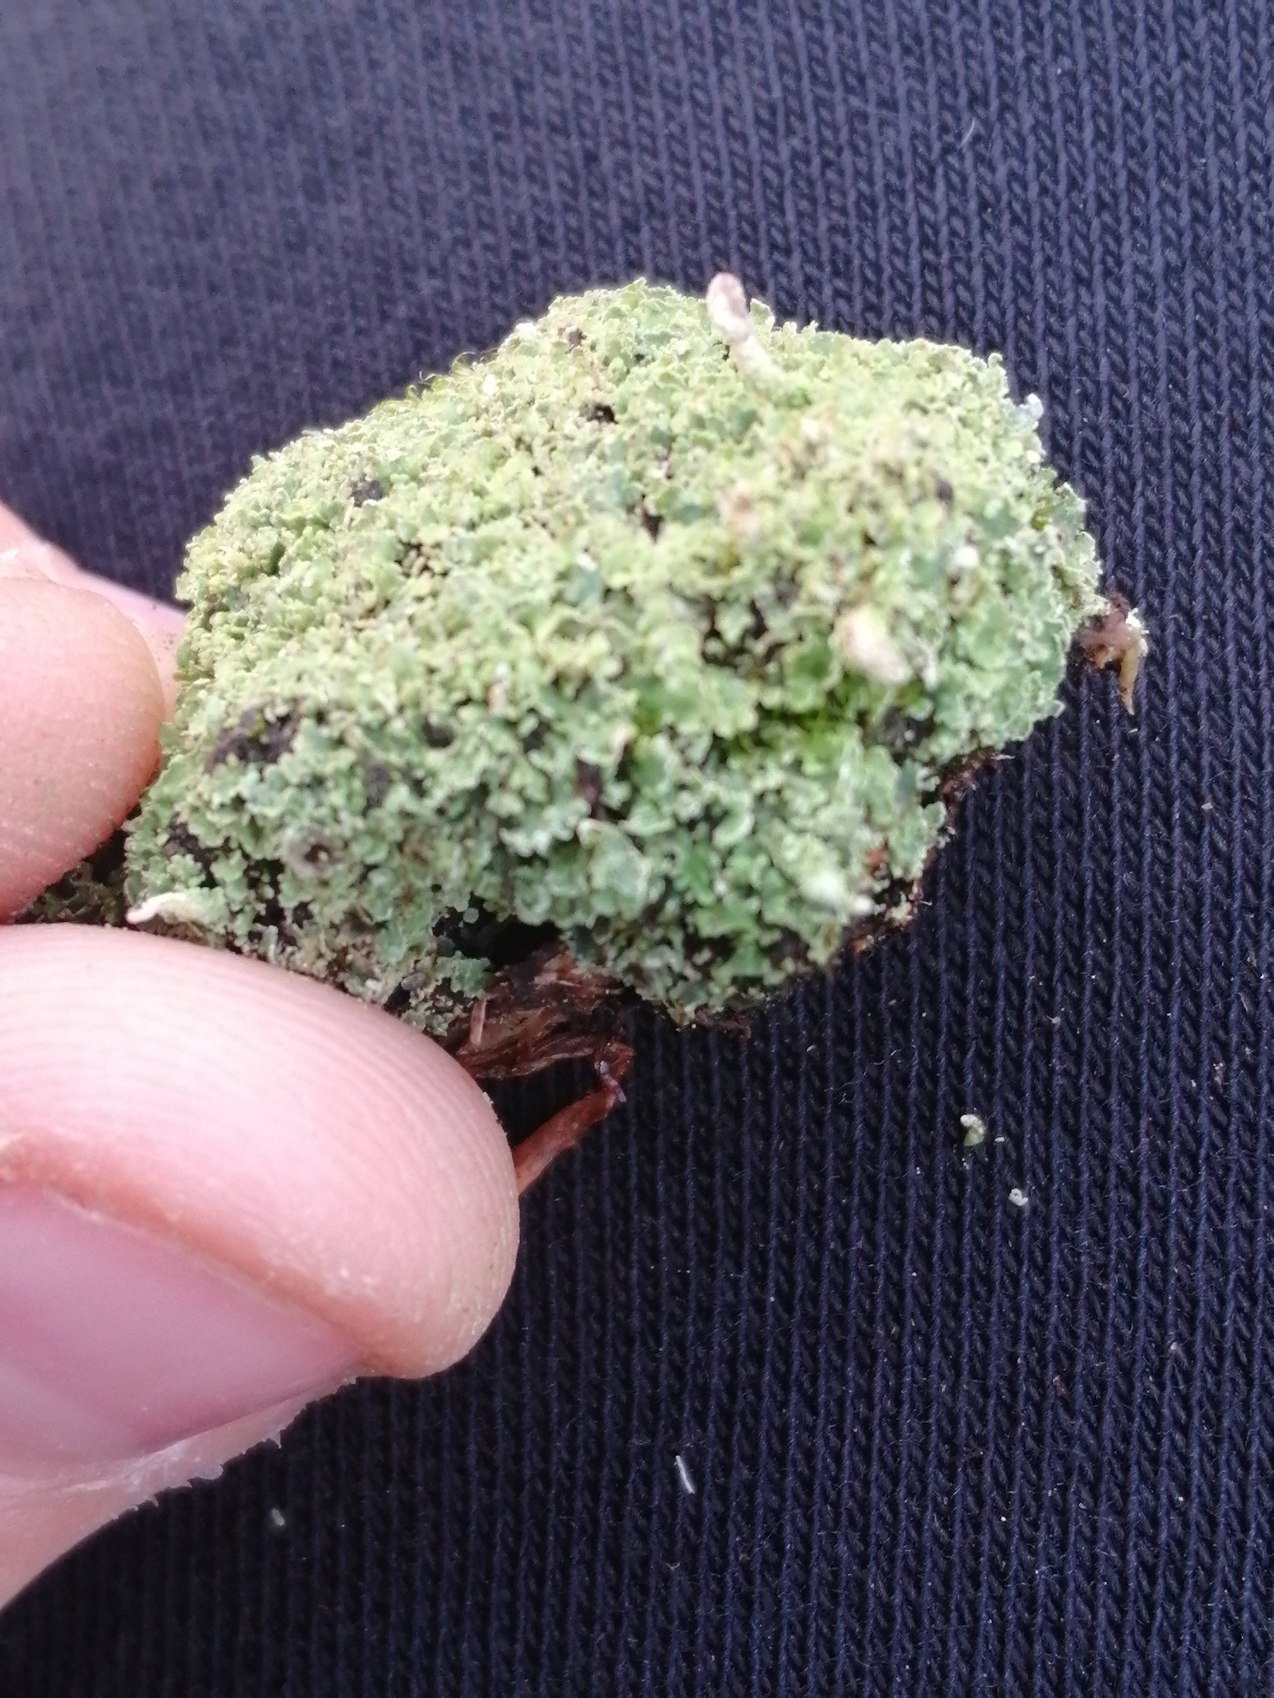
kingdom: Fungi
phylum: Ascomycota
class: Lecanoromycetes
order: Lecanorales
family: Cladoniaceae
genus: Cladonia
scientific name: Cladonia
